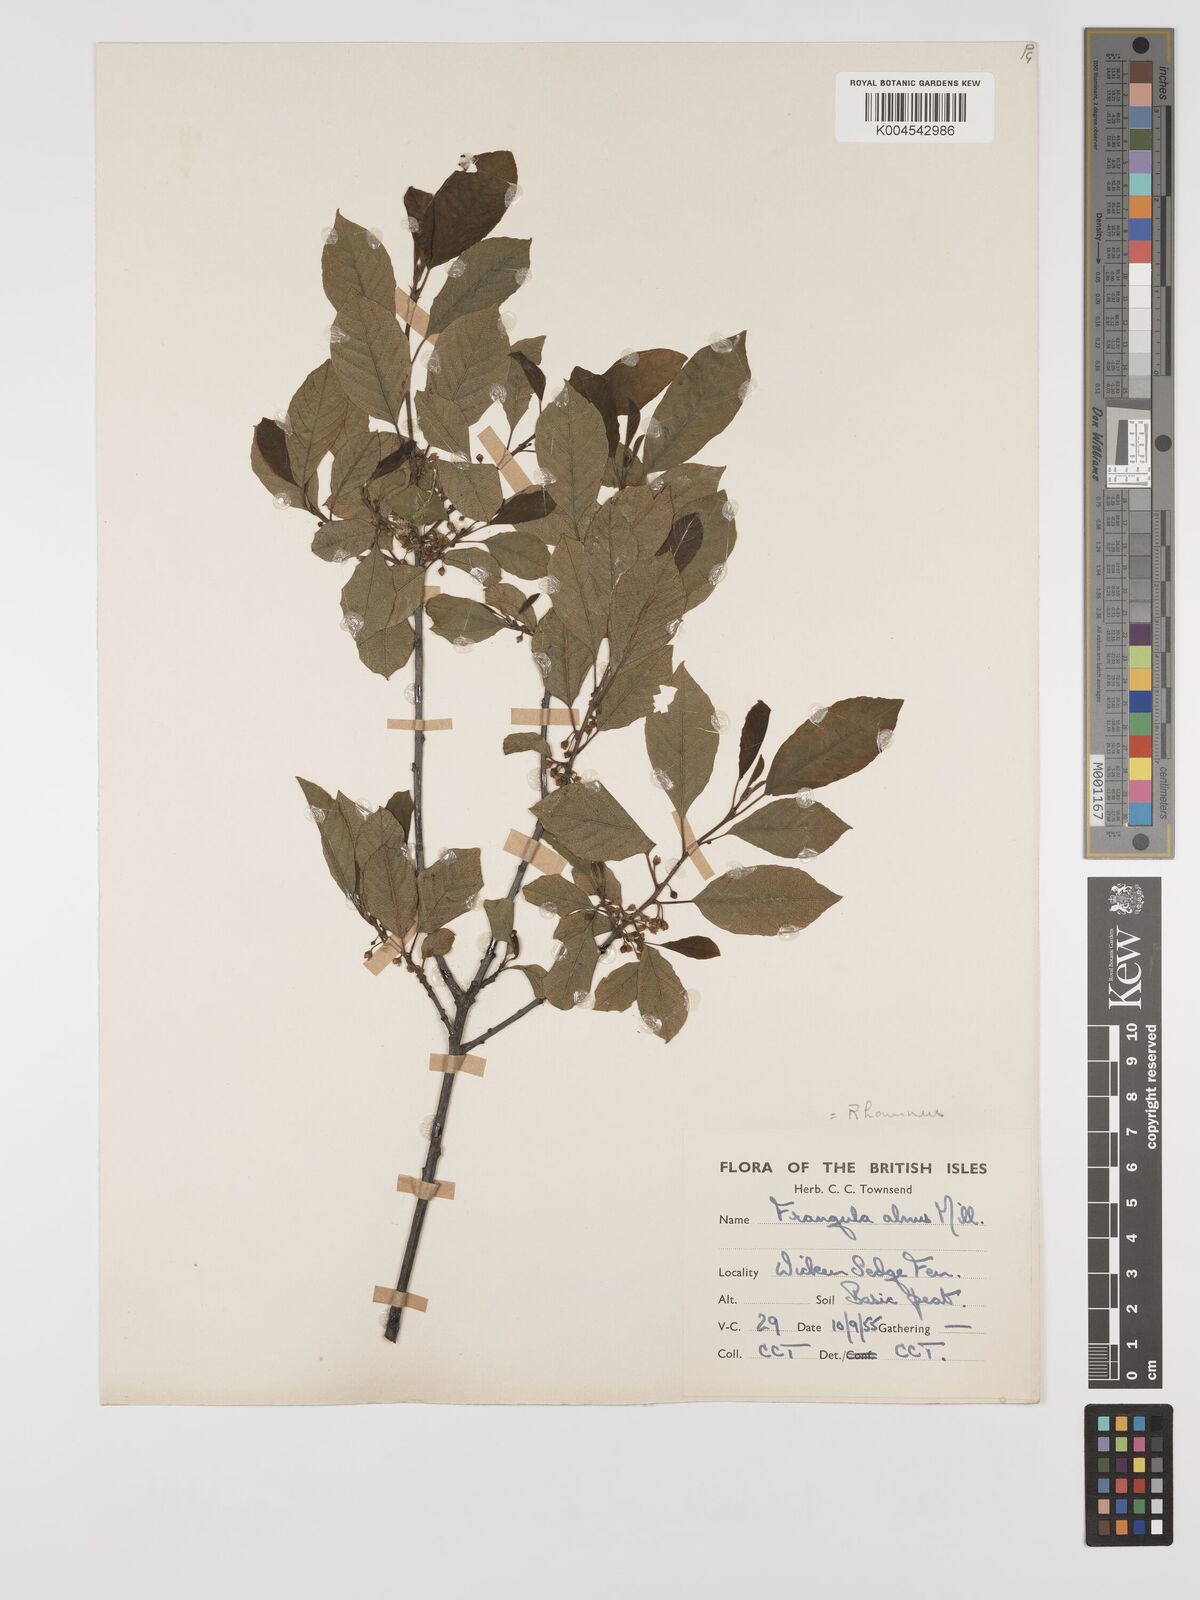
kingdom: Plantae
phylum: Tracheophyta
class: Magnoliopsida
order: Rosales
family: Rhamnaceae
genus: Frangula
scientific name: Frangula alnus
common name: Alder buckthorn
